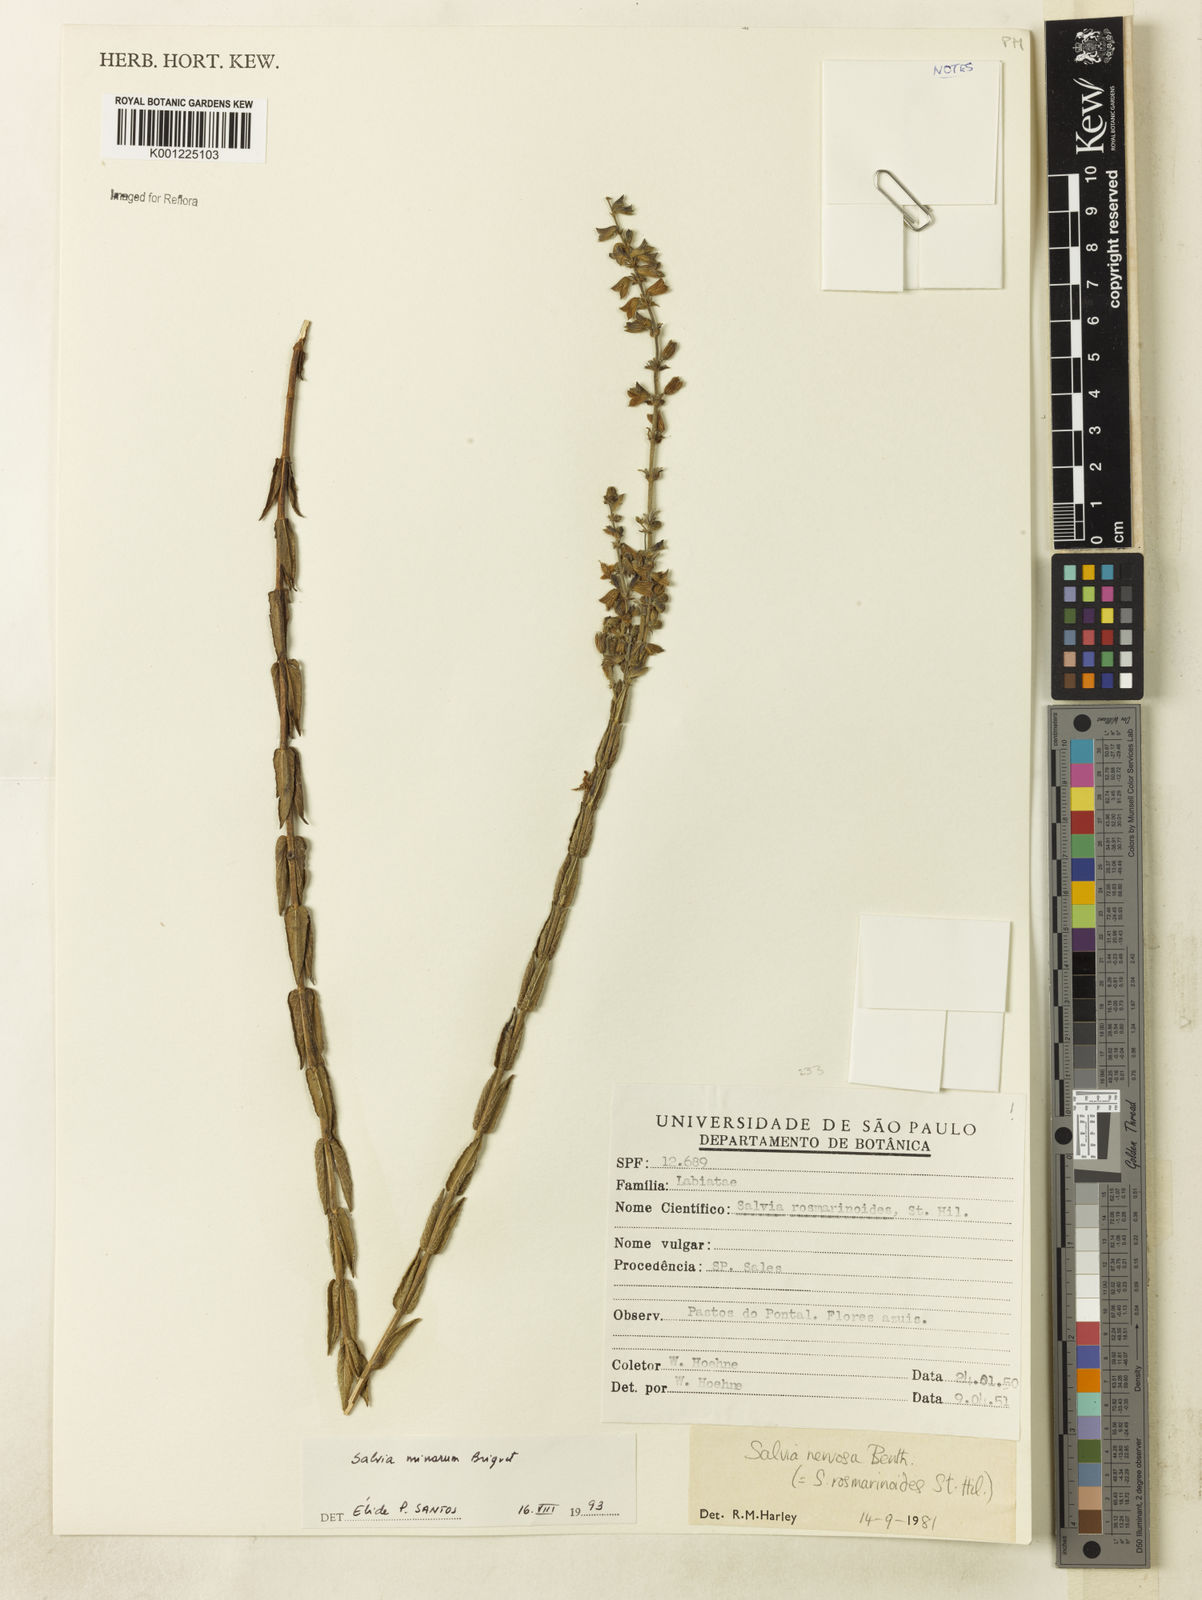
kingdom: Plantae
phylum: Tracheophyta
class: Magnoliopsida
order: Lamiales
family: Lamiaceae
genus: Salvia
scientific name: Salvia minarum
